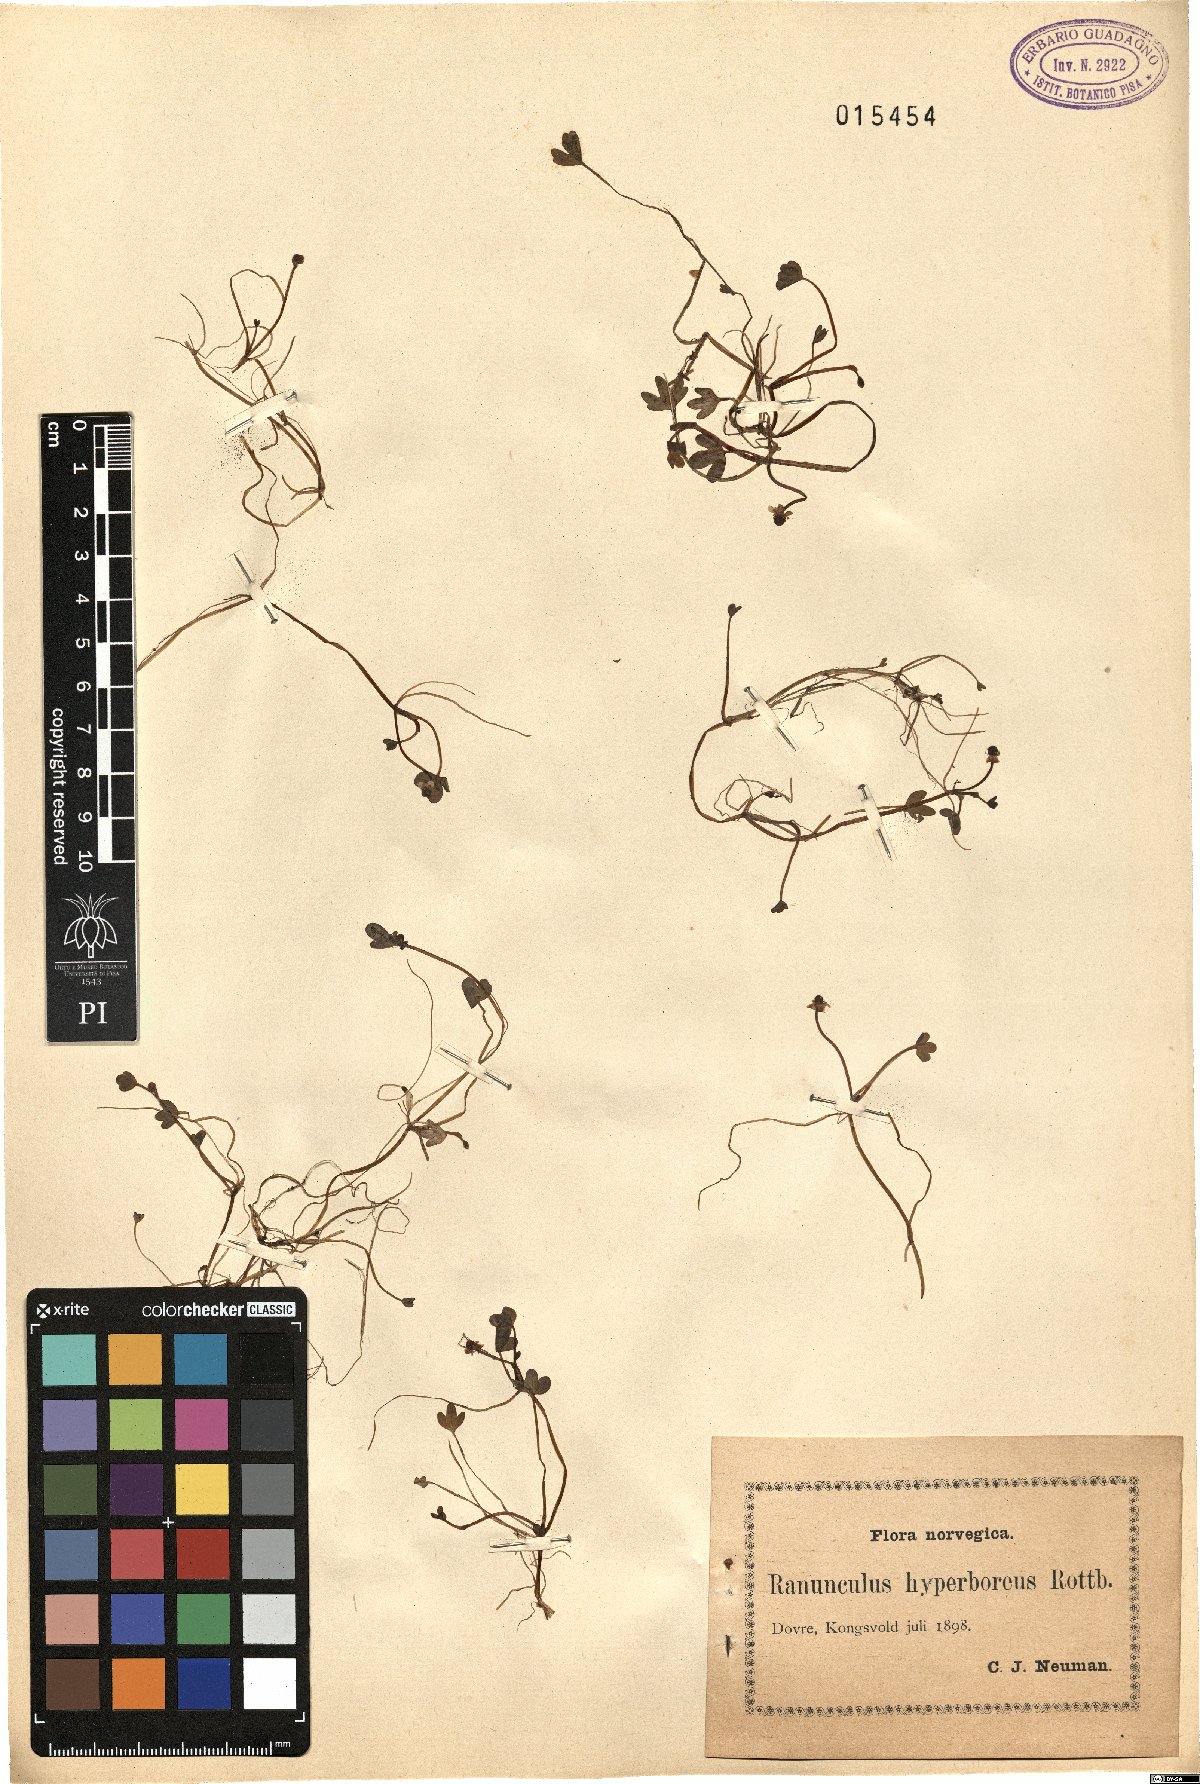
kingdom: Plantae
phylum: Tracheophyta
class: Magnoliopsida
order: Ranunculales
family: Ranunculaceae
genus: Ranunculus
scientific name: Ranunculus hyperboreus
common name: Arctic buttercup
